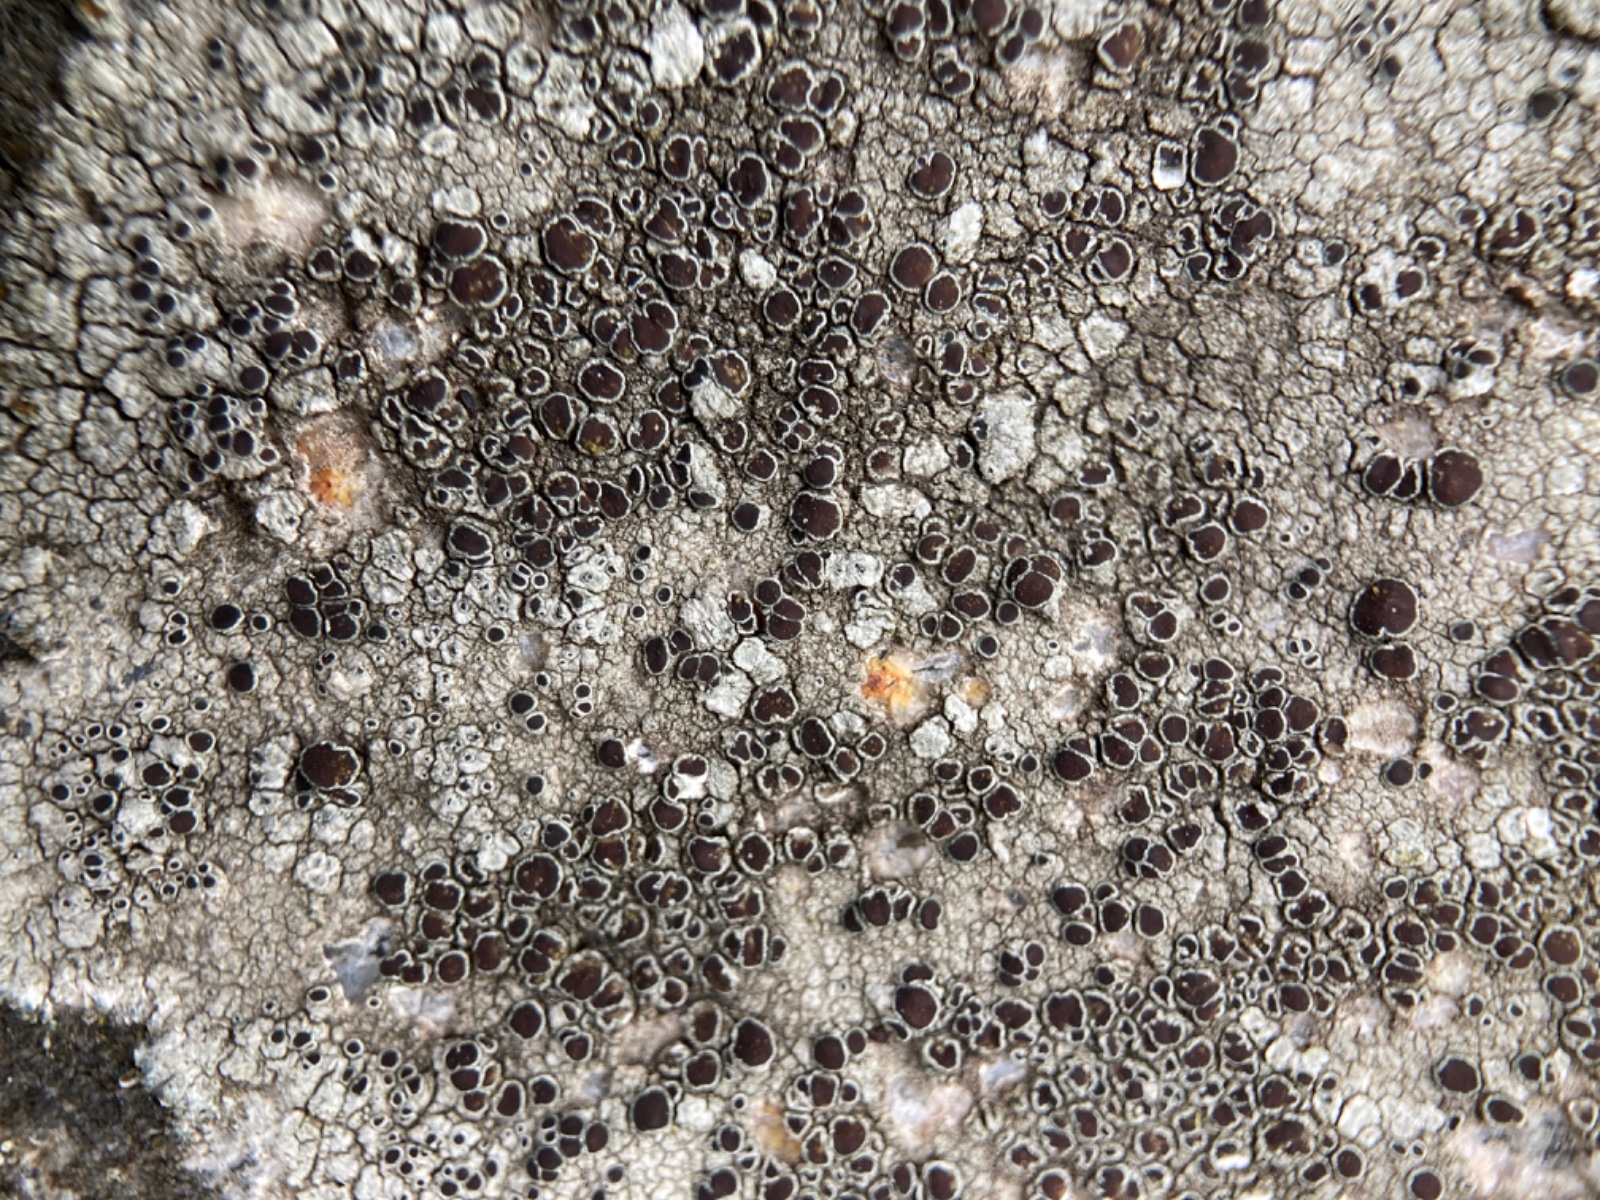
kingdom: Fungi
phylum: Ascomycota
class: Lecanoromycetes
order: Lecanorales
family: Lecanoraceae
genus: Lecanora
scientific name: Lecanora campestris
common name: mur-kantskivelav
